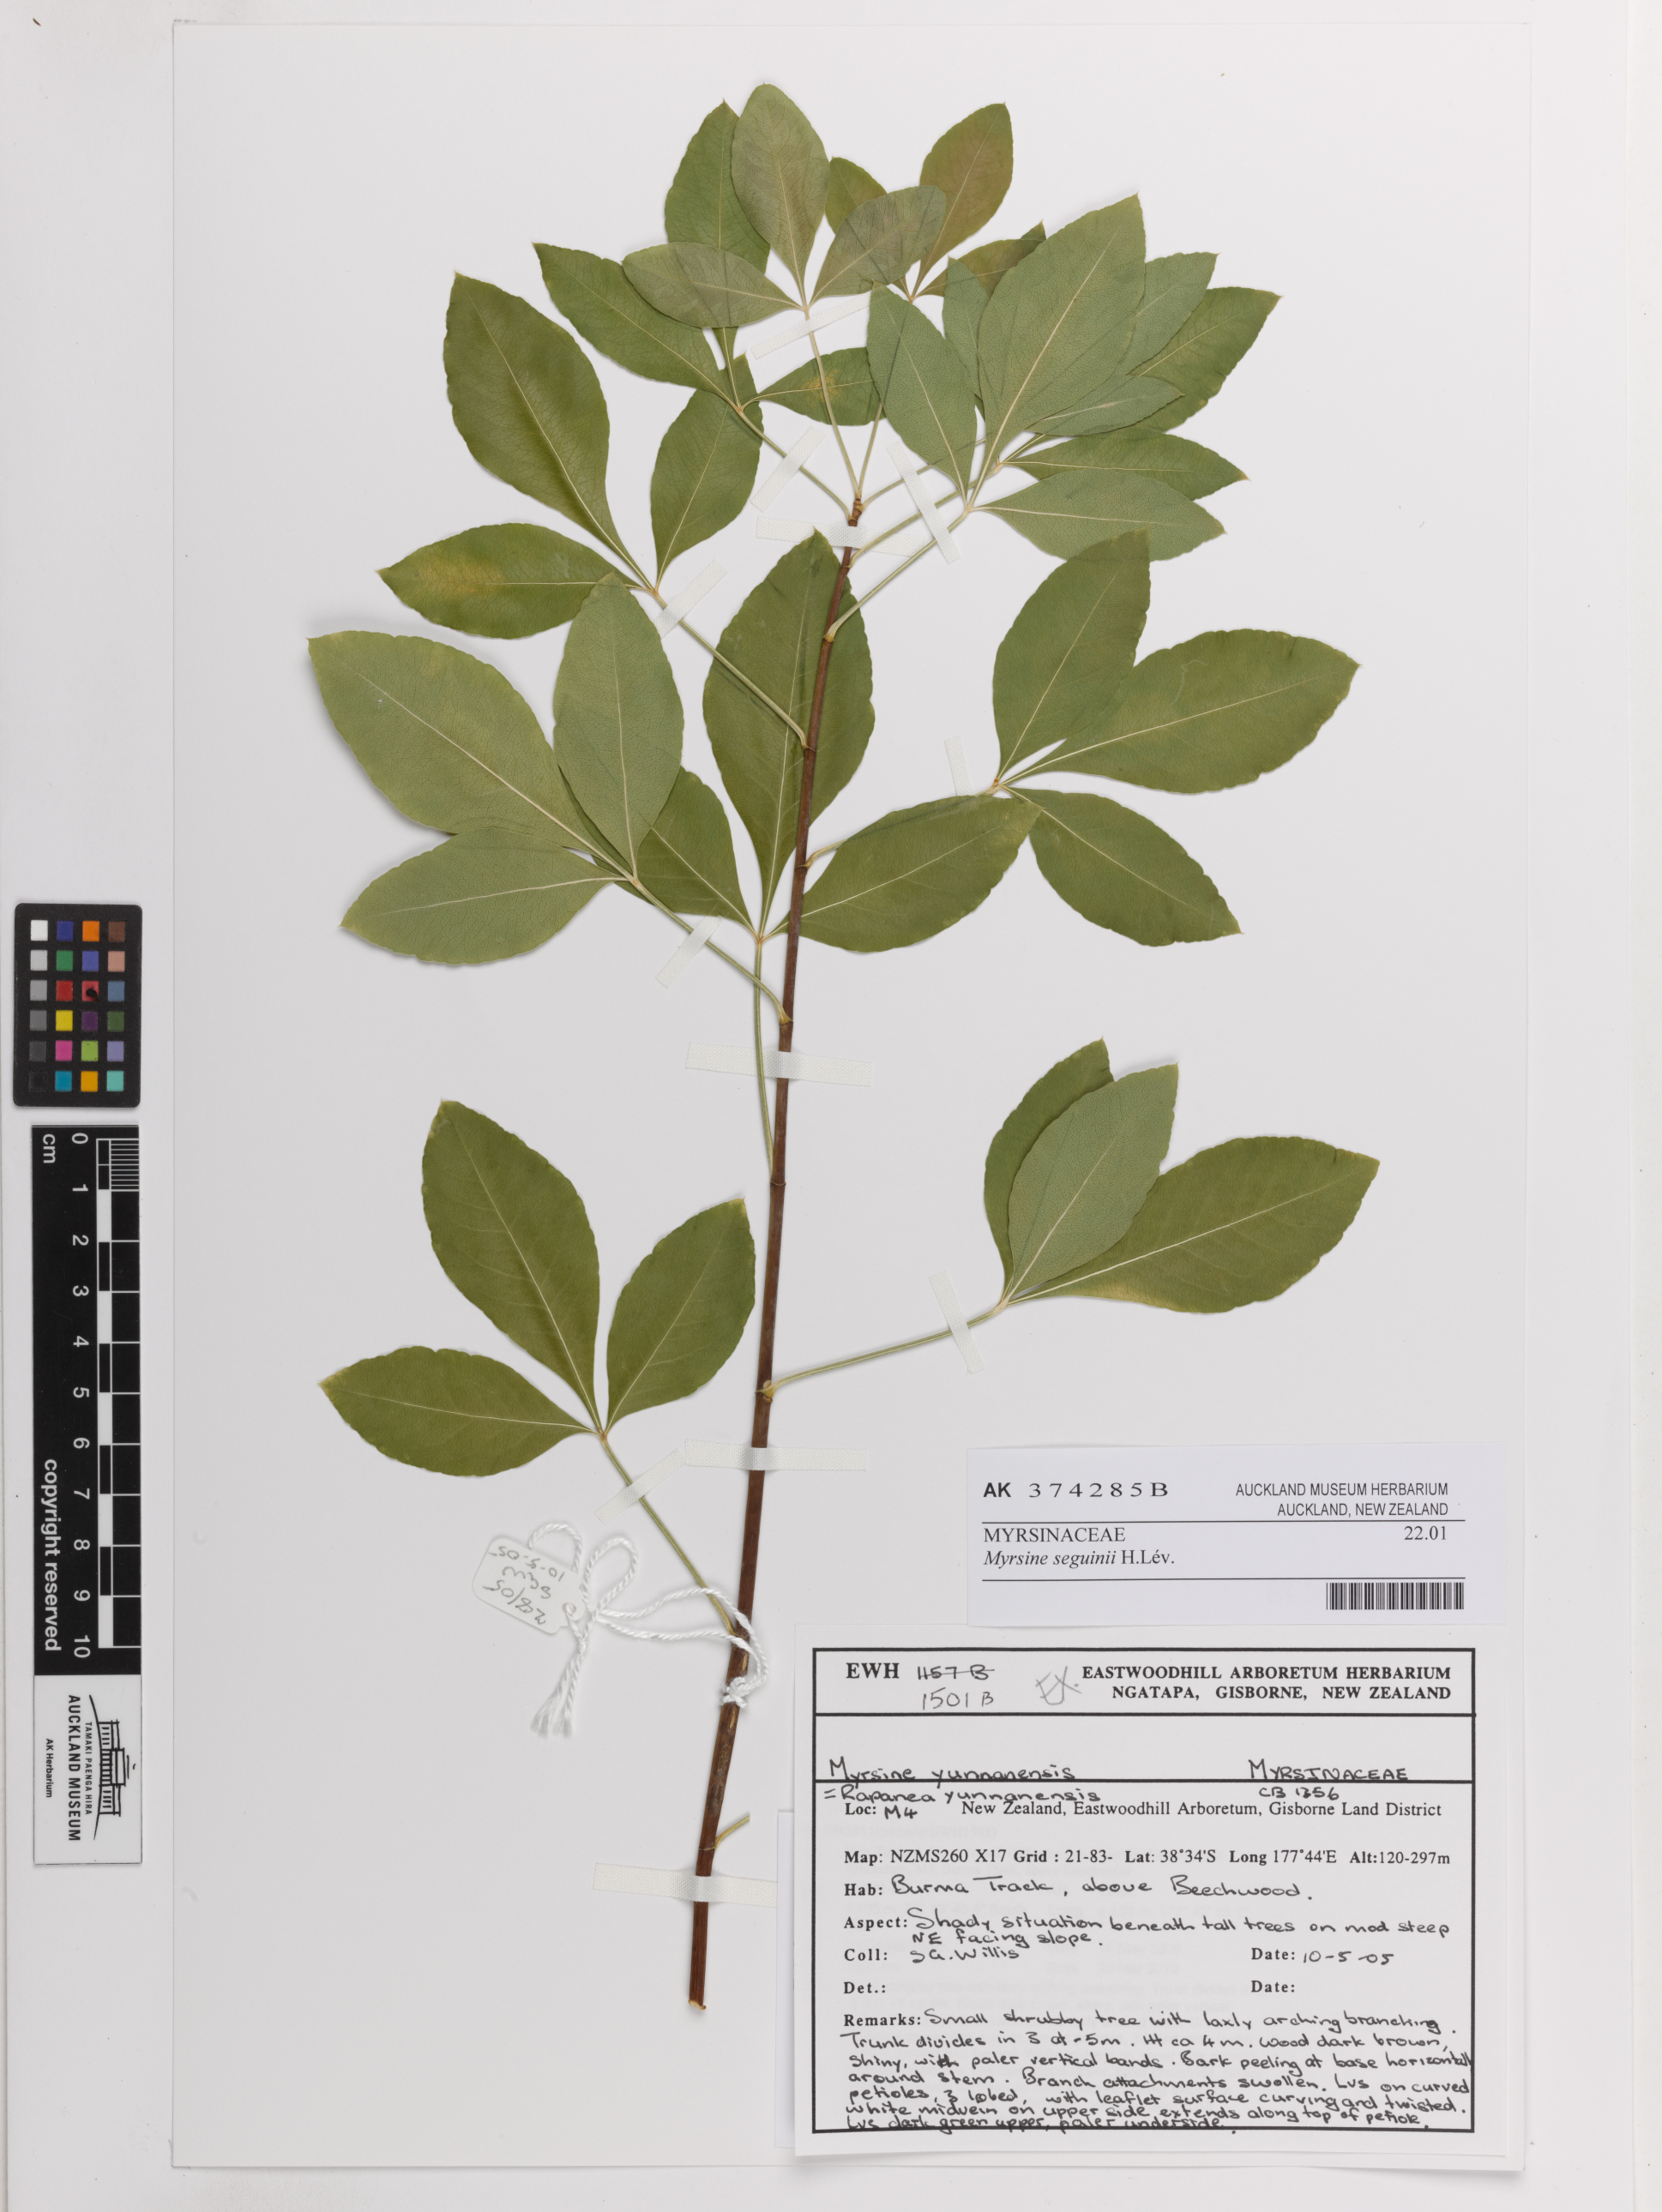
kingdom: Plantae
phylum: Tracheophyta
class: Magnoliopsida
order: Ericales
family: Primulaceae
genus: Myrsine
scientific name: Myrsine seguinii
